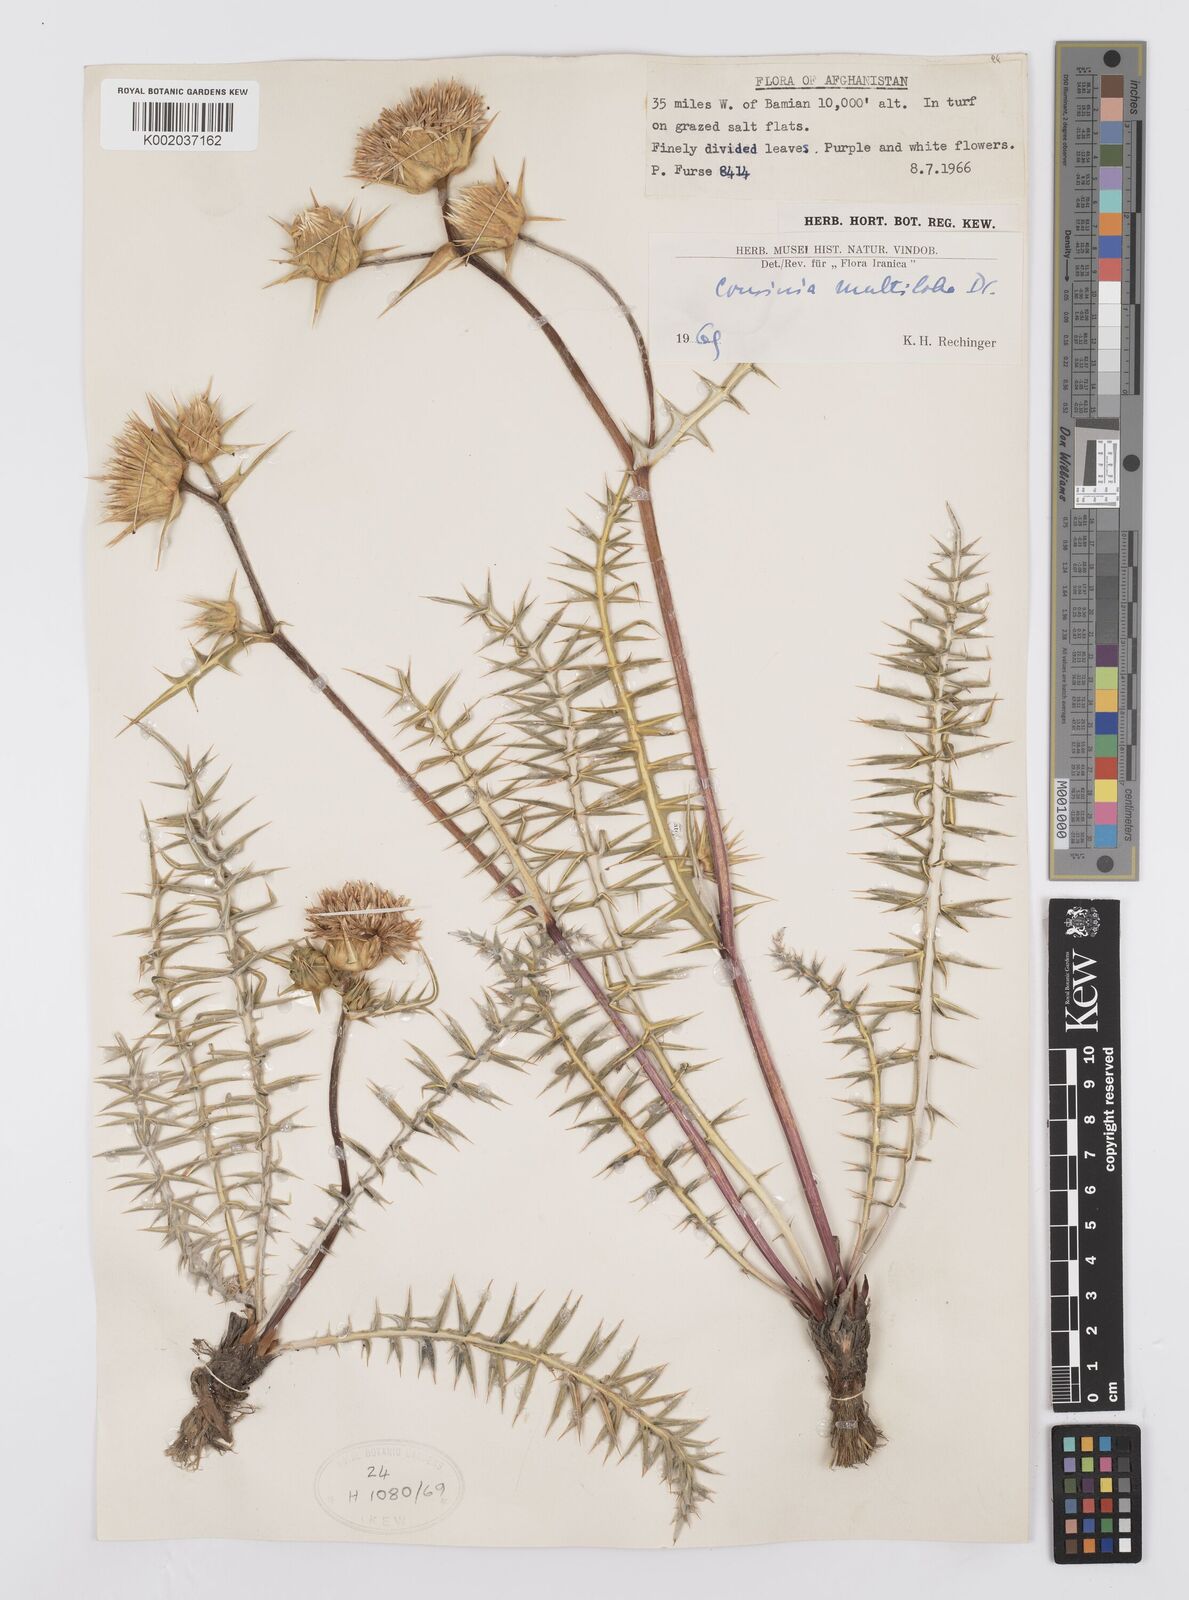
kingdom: Plantae
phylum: Tracheophyta
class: Magnoliopsida
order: Asterales
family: Asteraceae
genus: Cousinia
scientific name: Cousinia multiloba
